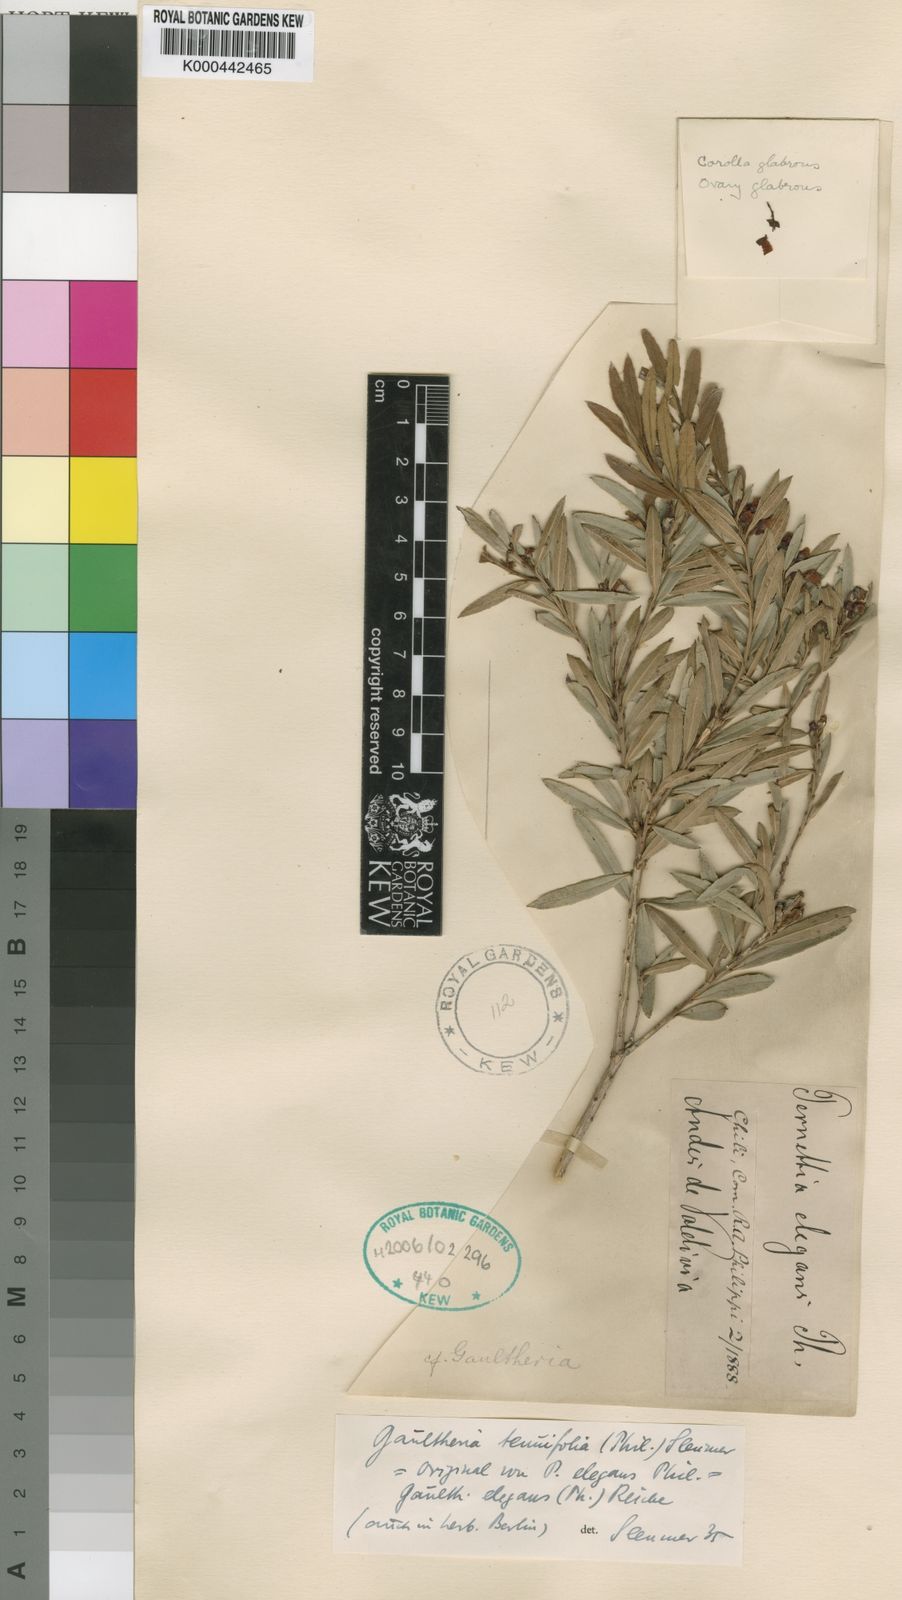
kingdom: Plantae
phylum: Tracheophyta
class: Magnoliopsida
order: Ericales
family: Ericaceae
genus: Gaultheria
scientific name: Gaultheria tenuifolia
